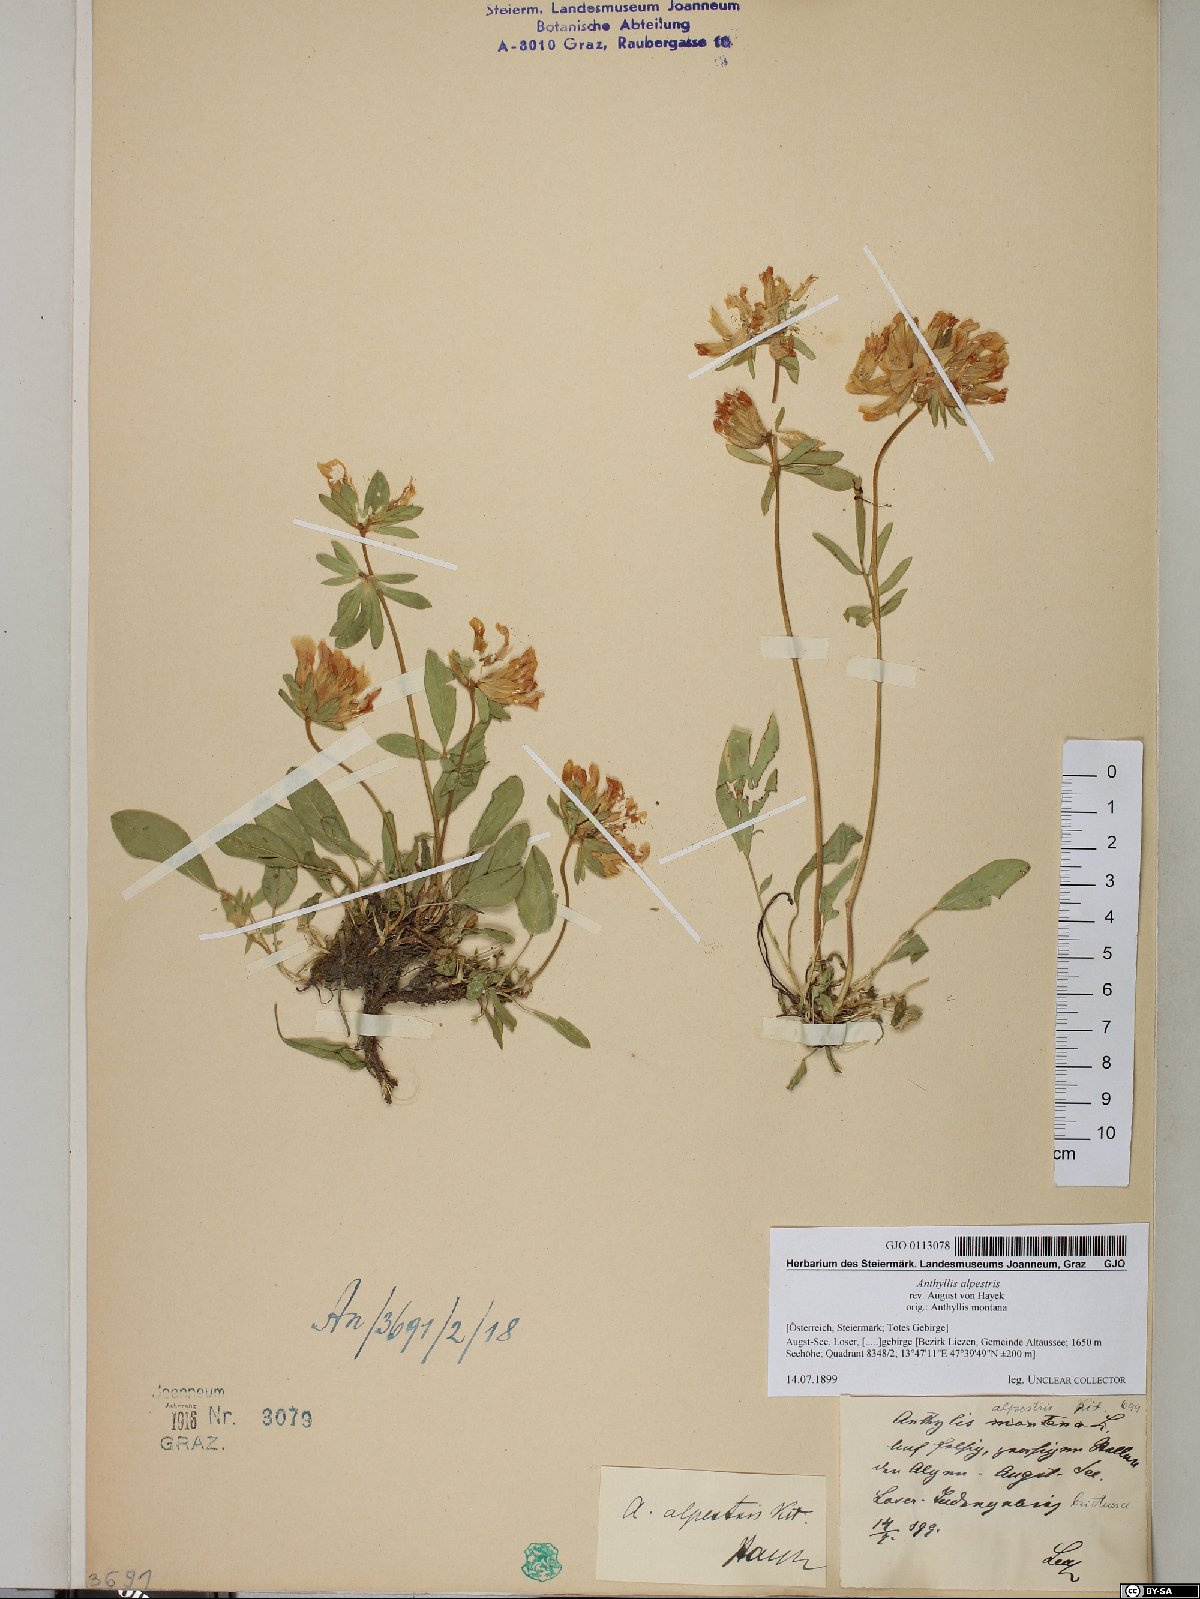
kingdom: Plantae
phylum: Tracheophyta
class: Magnoliopsida
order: Fabales
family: Fabaceae
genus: Anthyllis
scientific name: Anthyllis vulneraria
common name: Kidney vetch
